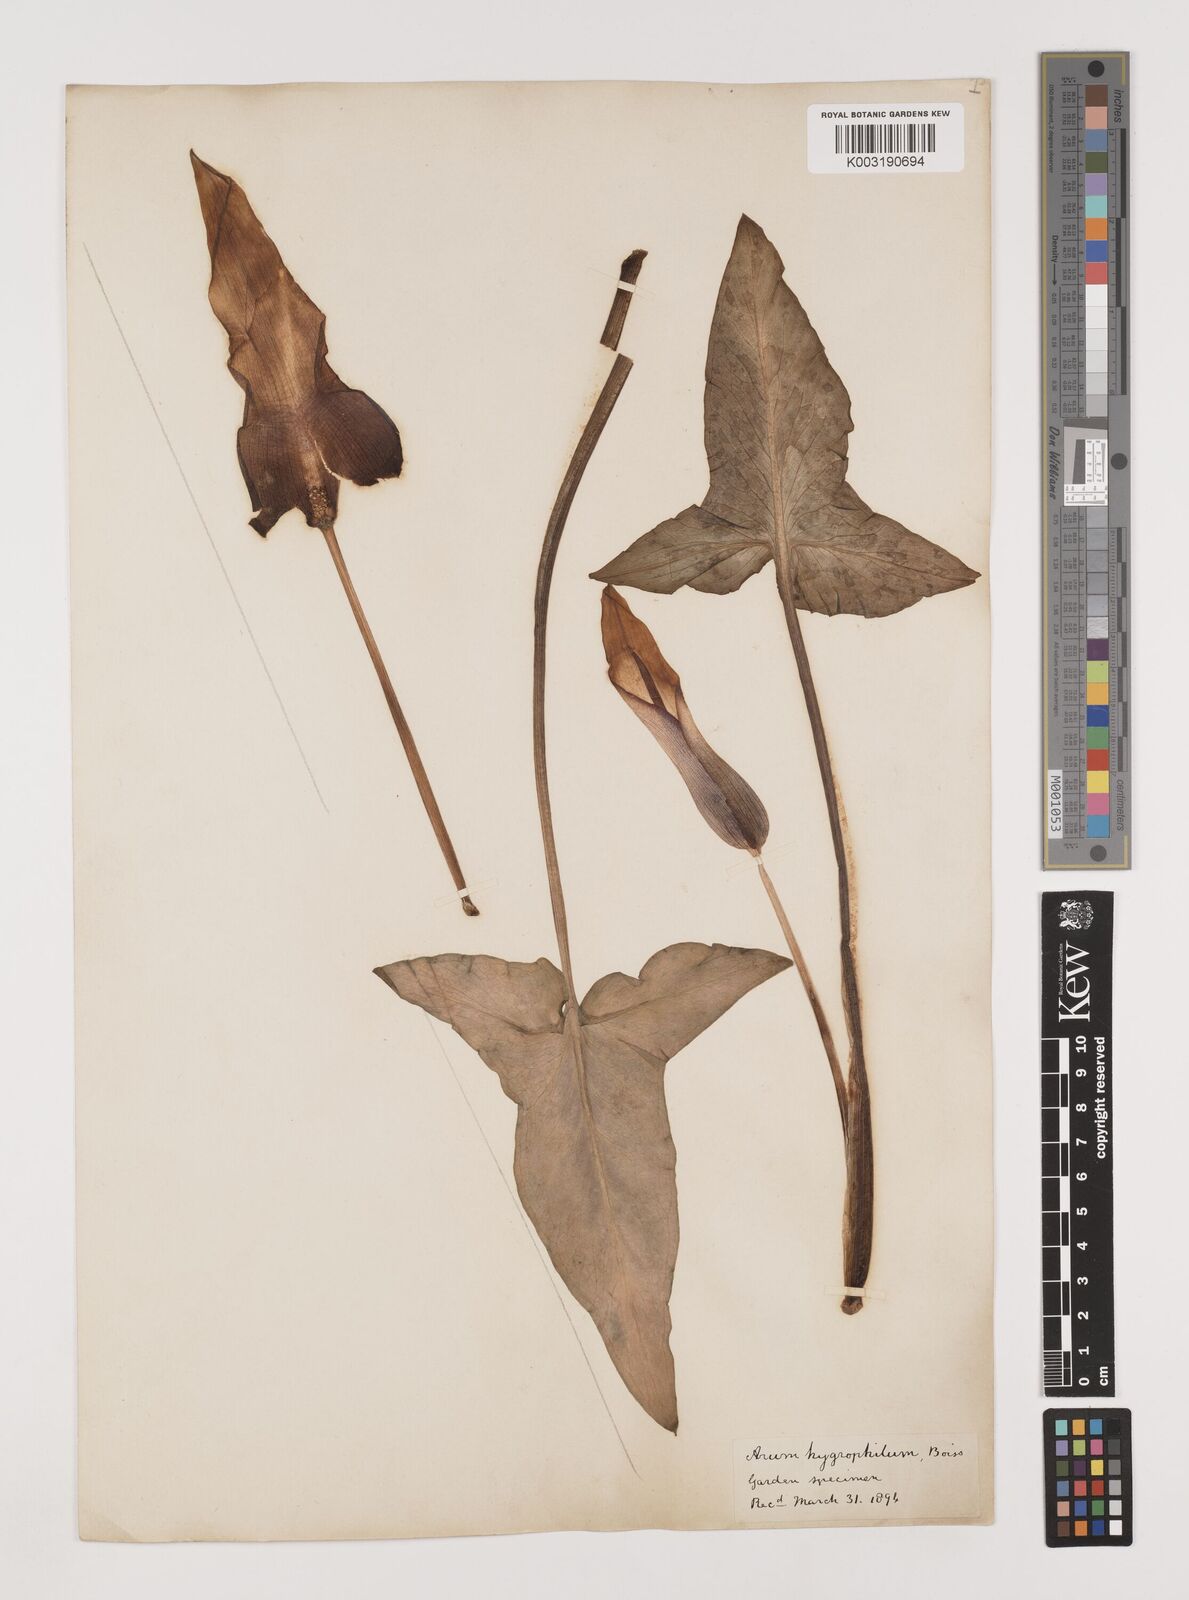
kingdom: Plantae
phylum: Tracheophyta
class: Liliopsida
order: Alismatales
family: Araceae
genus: Arum
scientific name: Arum hygrophilum
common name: Water arum
